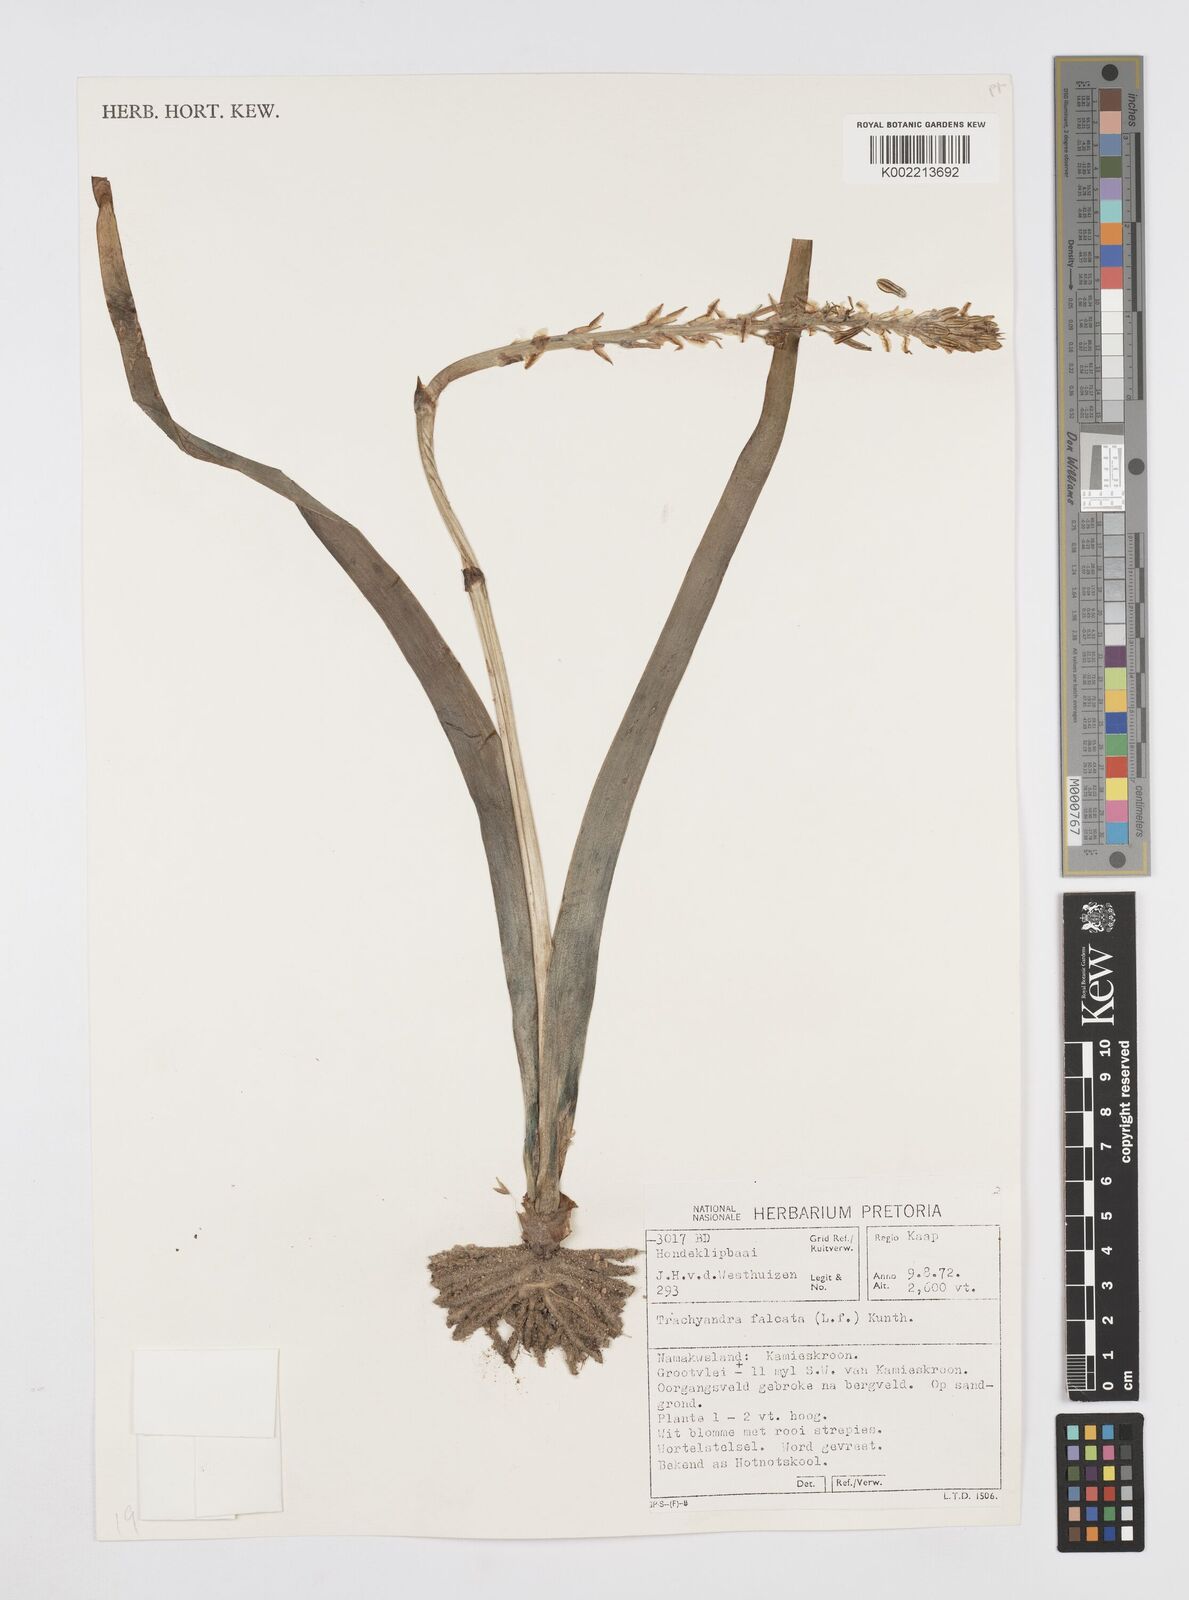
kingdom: Plantae
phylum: Tracheophyta
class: Liliopsida
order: Asparagales
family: Asphodelaceae
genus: Trachyandra
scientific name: Trachyandra falcata
